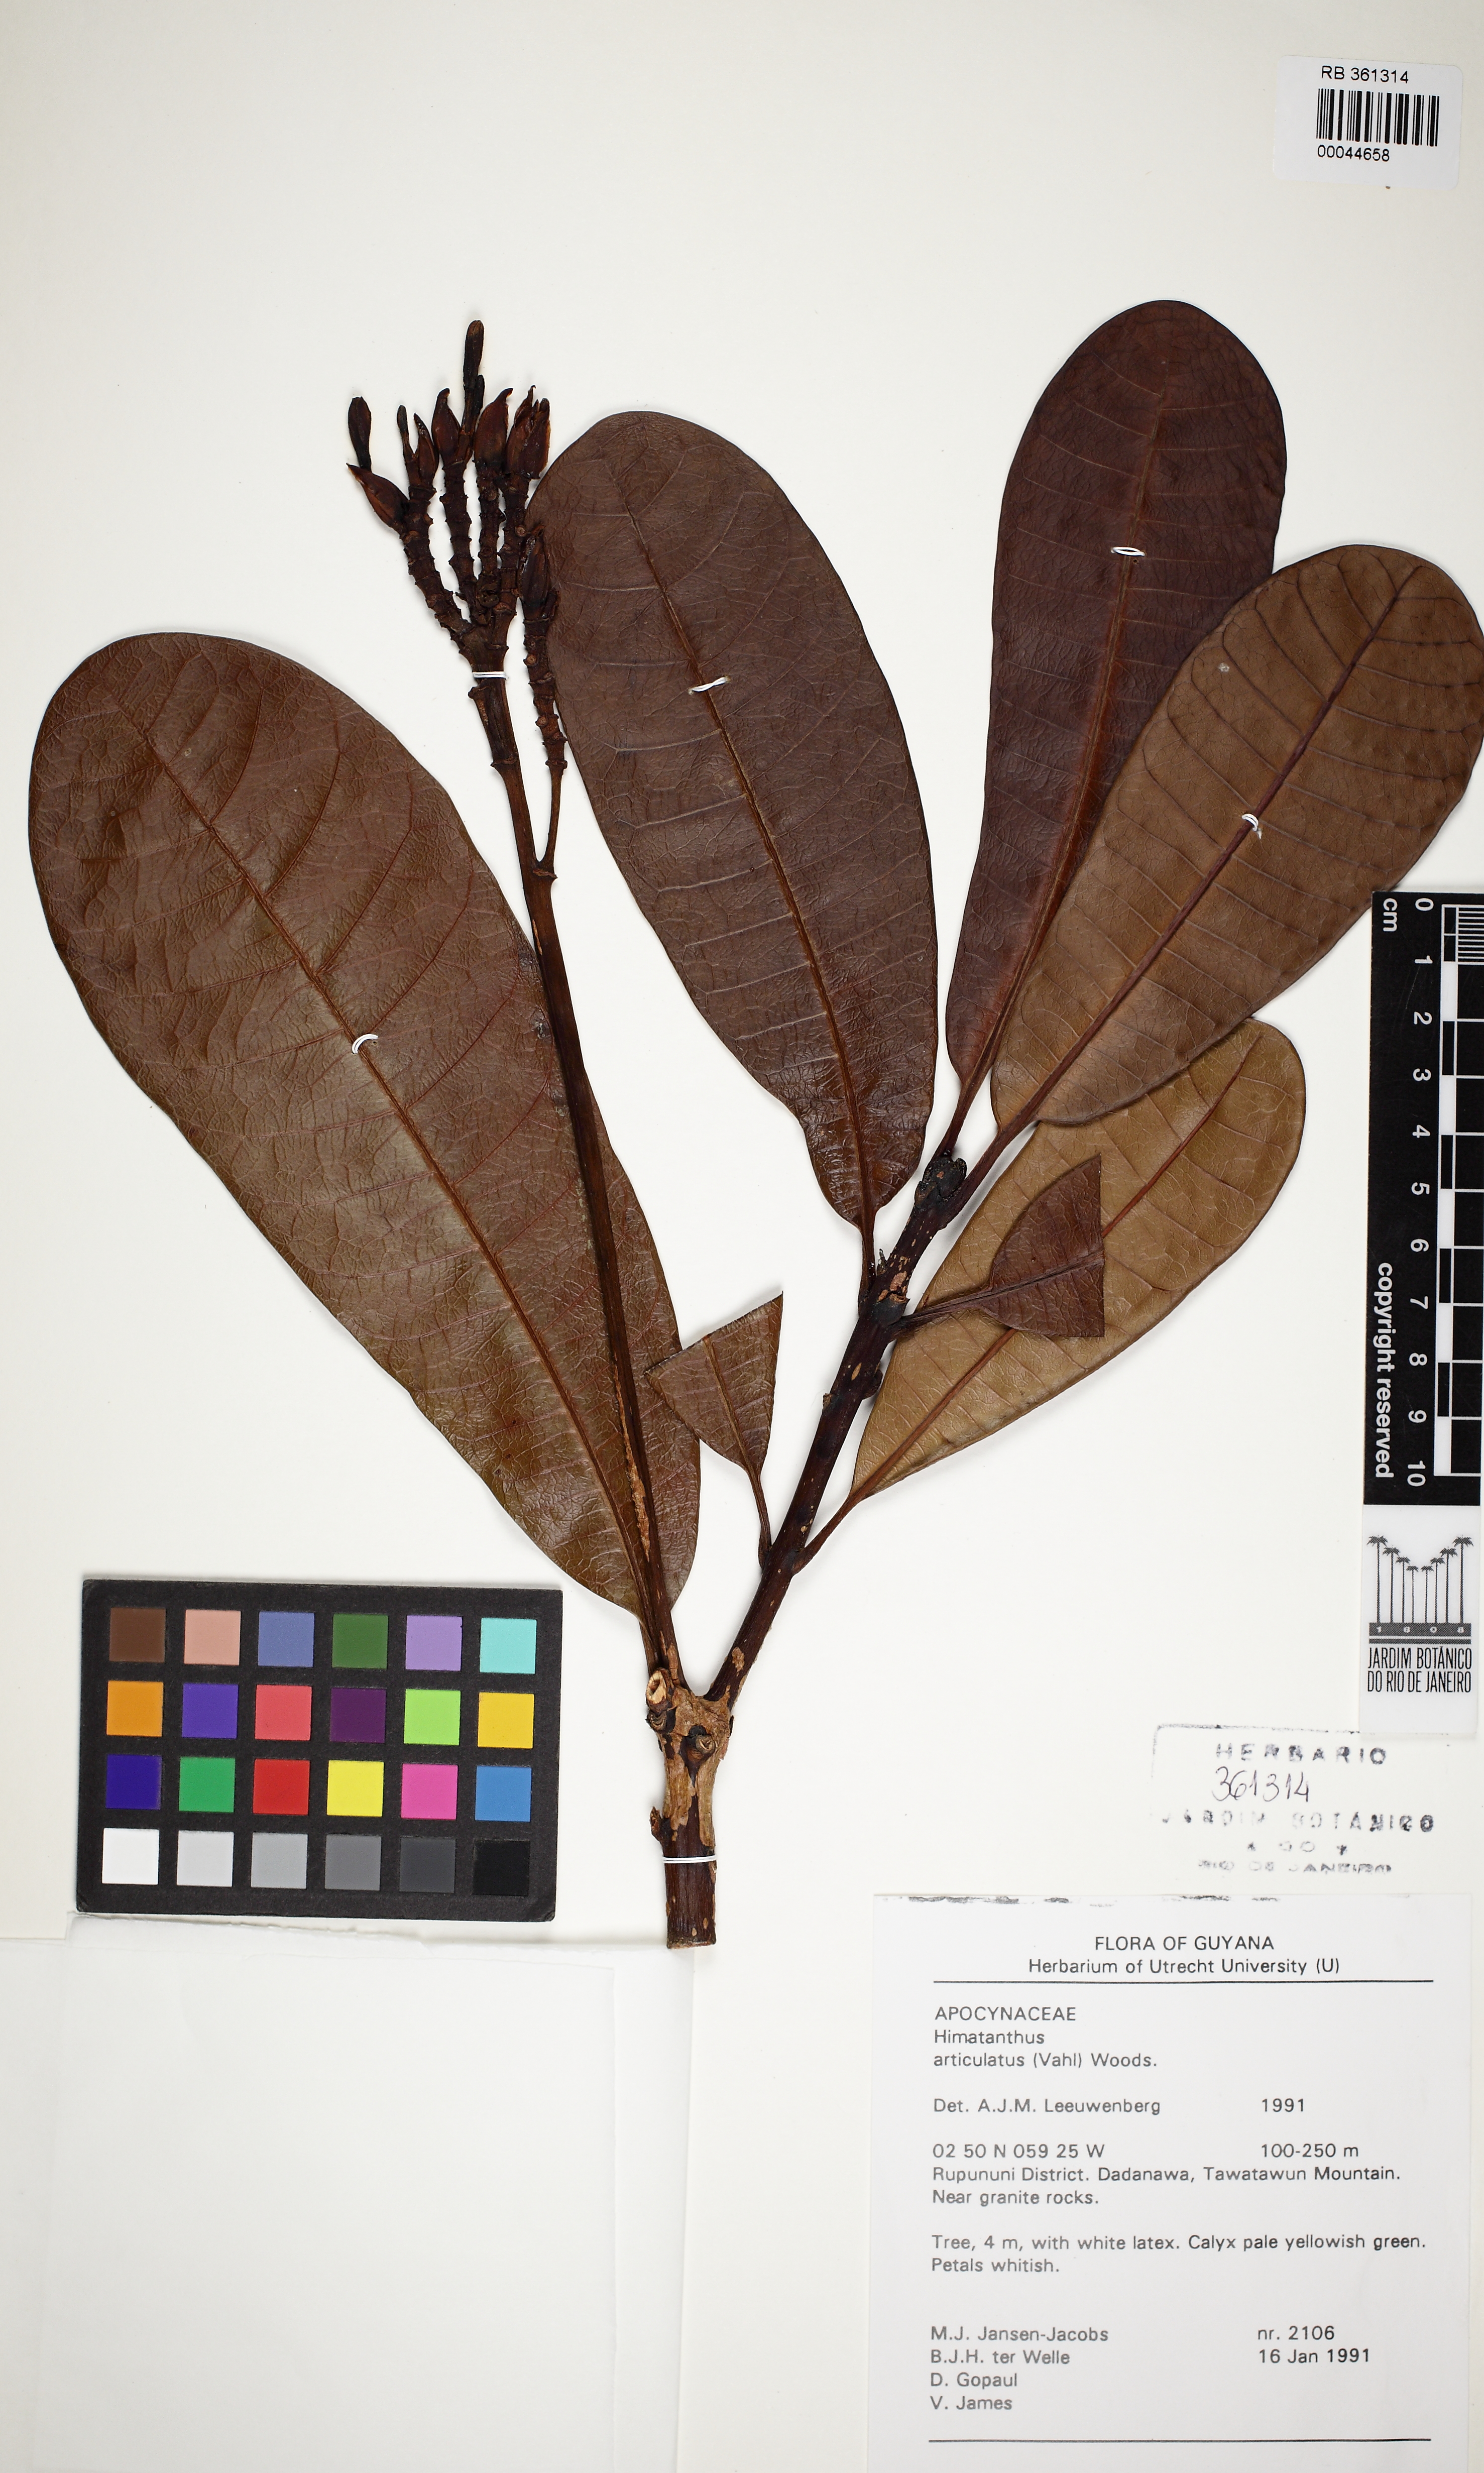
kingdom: Plantae
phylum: Tracheophyta
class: Magnoliopsida
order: Gentianales
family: Apocynaceae
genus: Himatanthus
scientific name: Himatanthus articulatus
